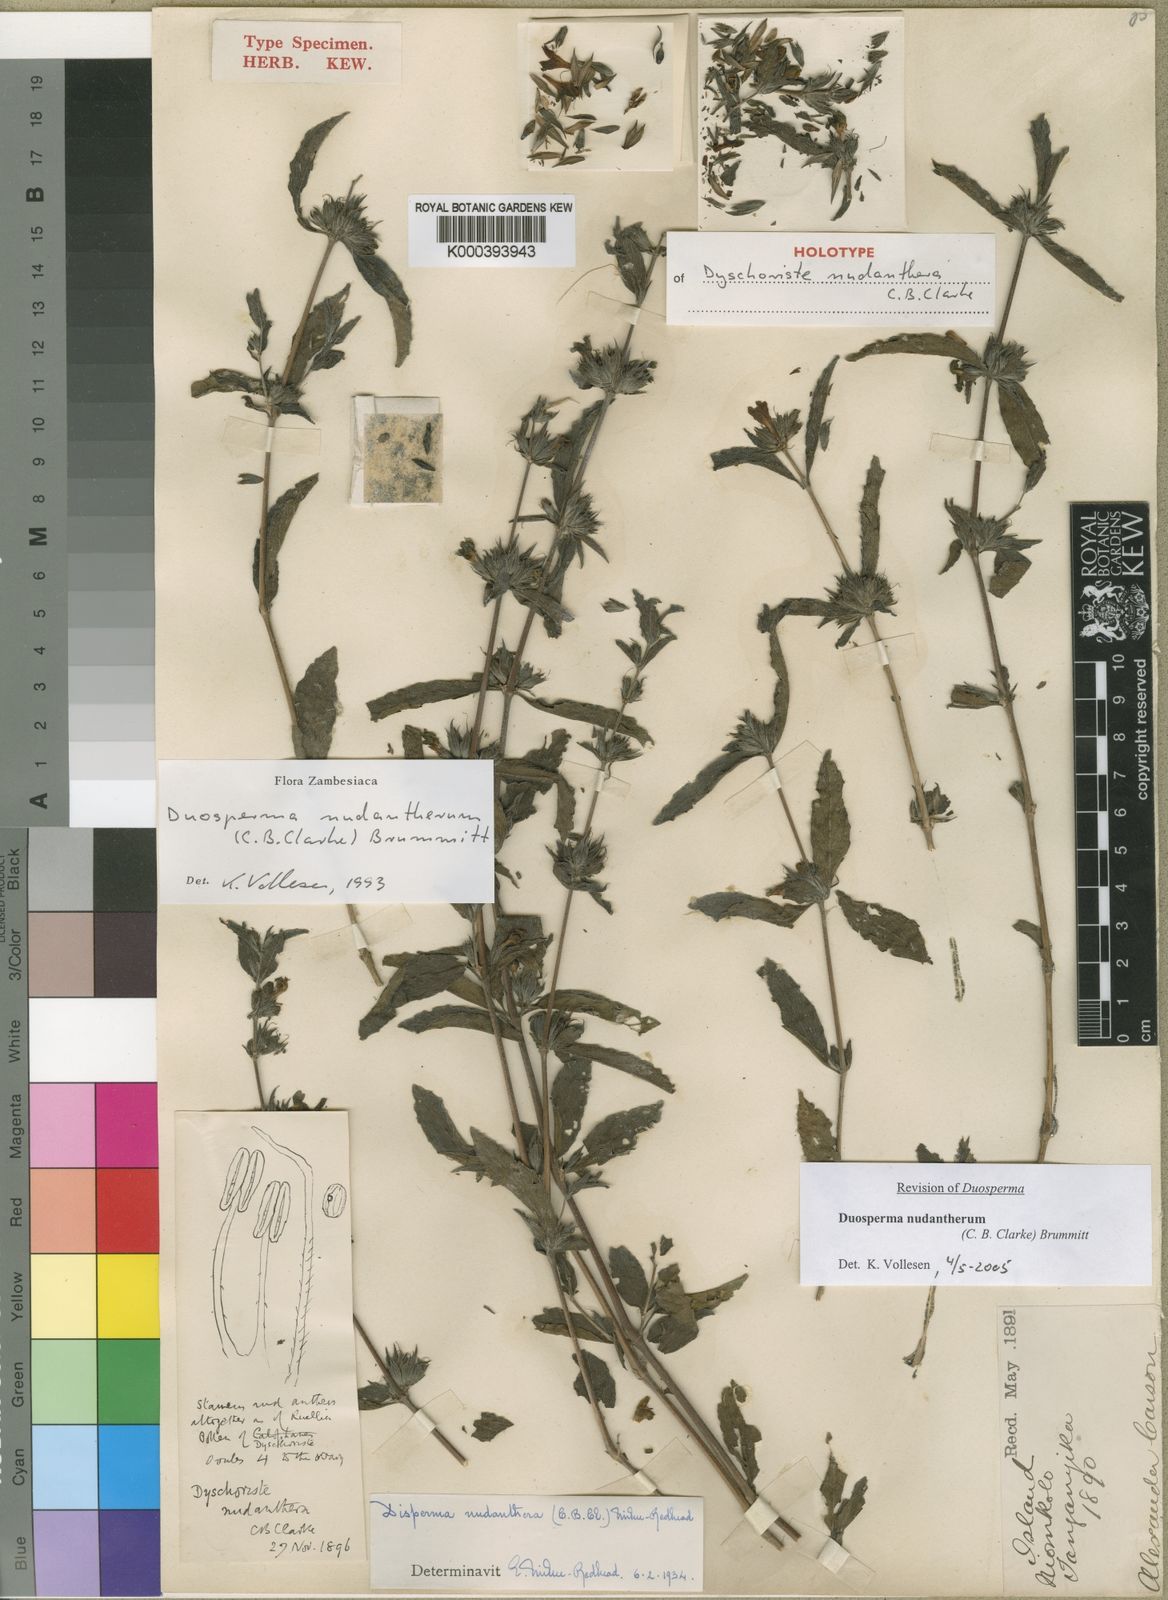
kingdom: Plantae
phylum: Tracheophyta
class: Magnoliopsida
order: Lamiales
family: Acanthaceae
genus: Duosperma
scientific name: Duosperma nudantherum
